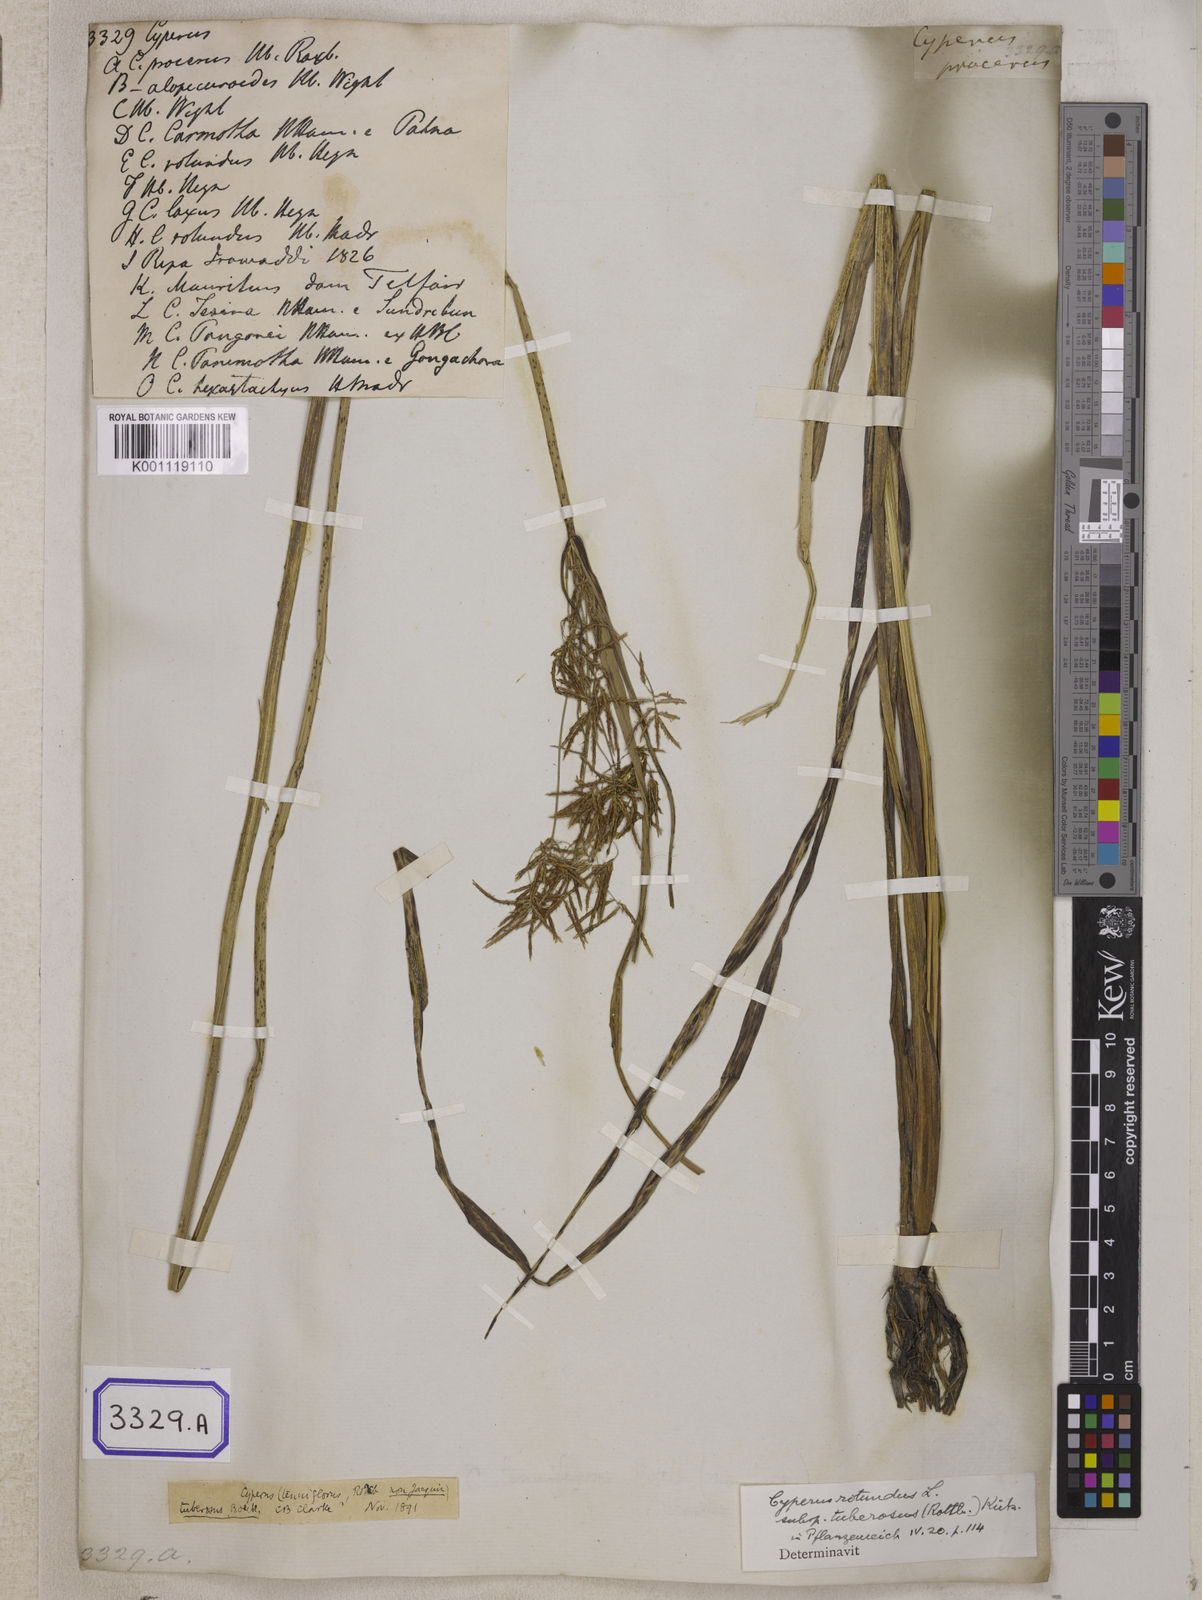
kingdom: Plantae
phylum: Tracheophyta
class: Liliopsida
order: Poales
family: Cyperaceae
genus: Cyperus
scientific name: Cyperus
